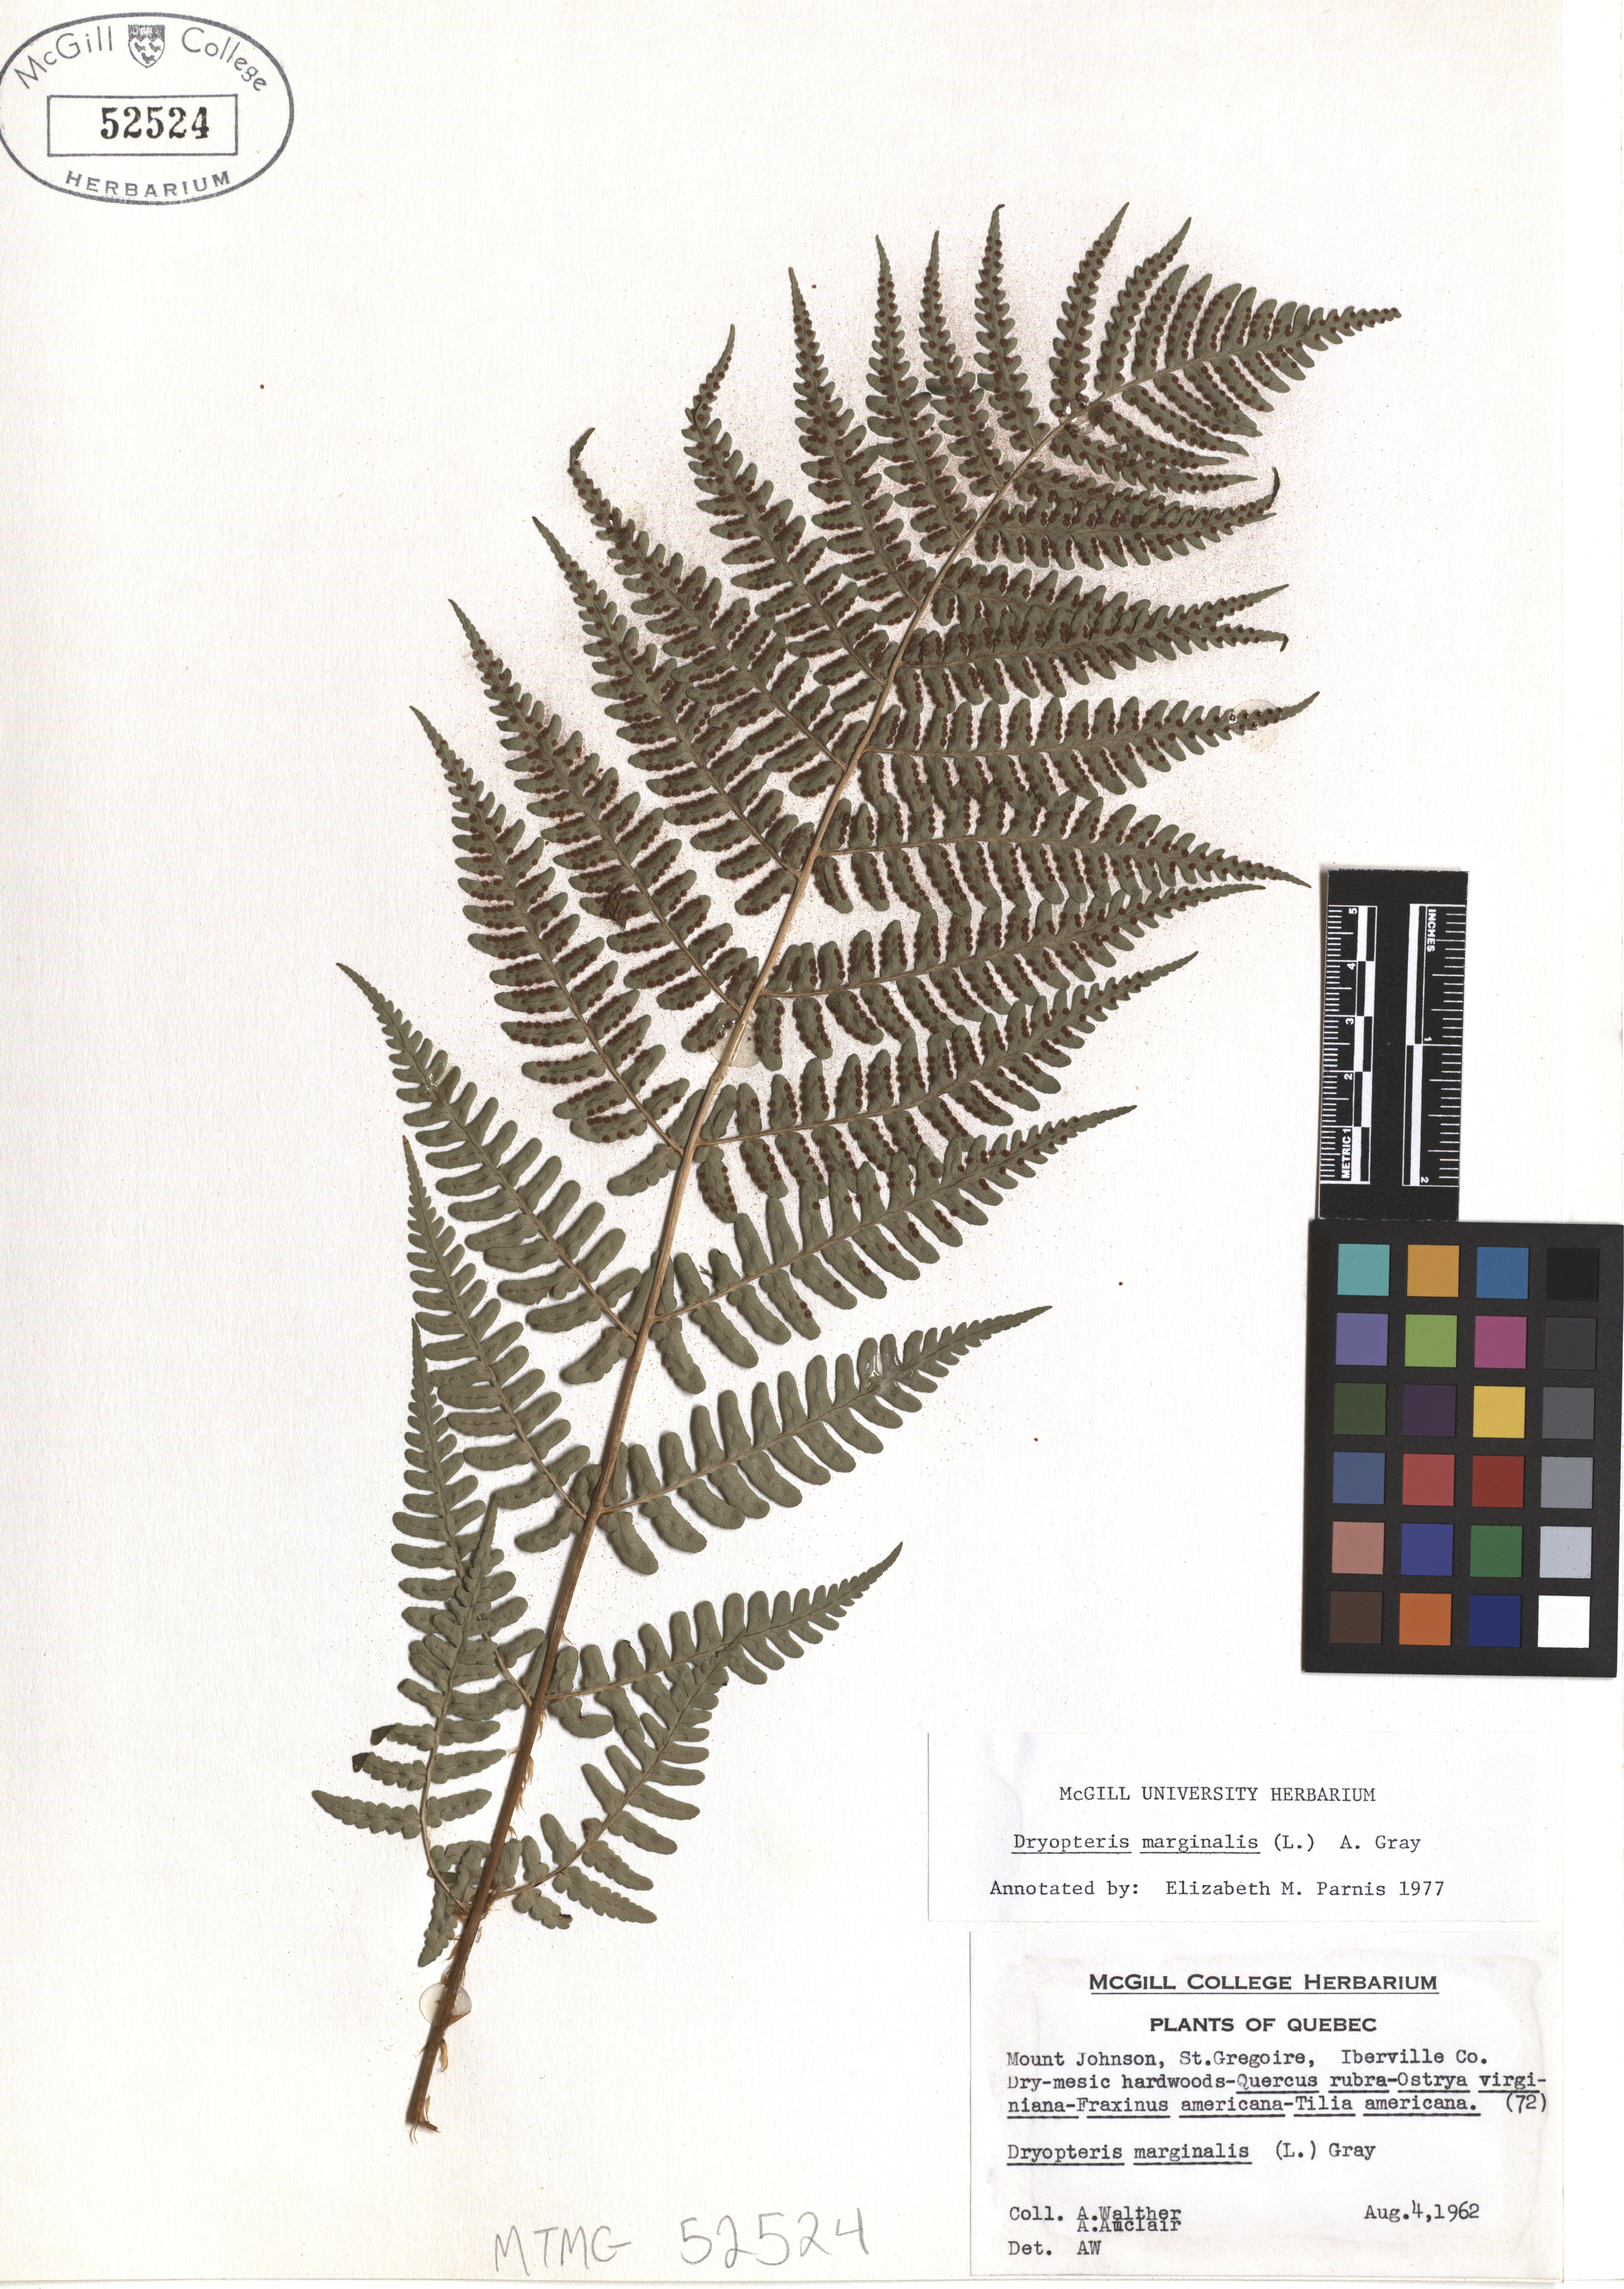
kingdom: Plantae
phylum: Tracheophyta
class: Polypodiopsida
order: Polypodiales
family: Dryopteridaceae
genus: Dryopteris
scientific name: Dryopteris marginalis
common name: Marginal wood fern
